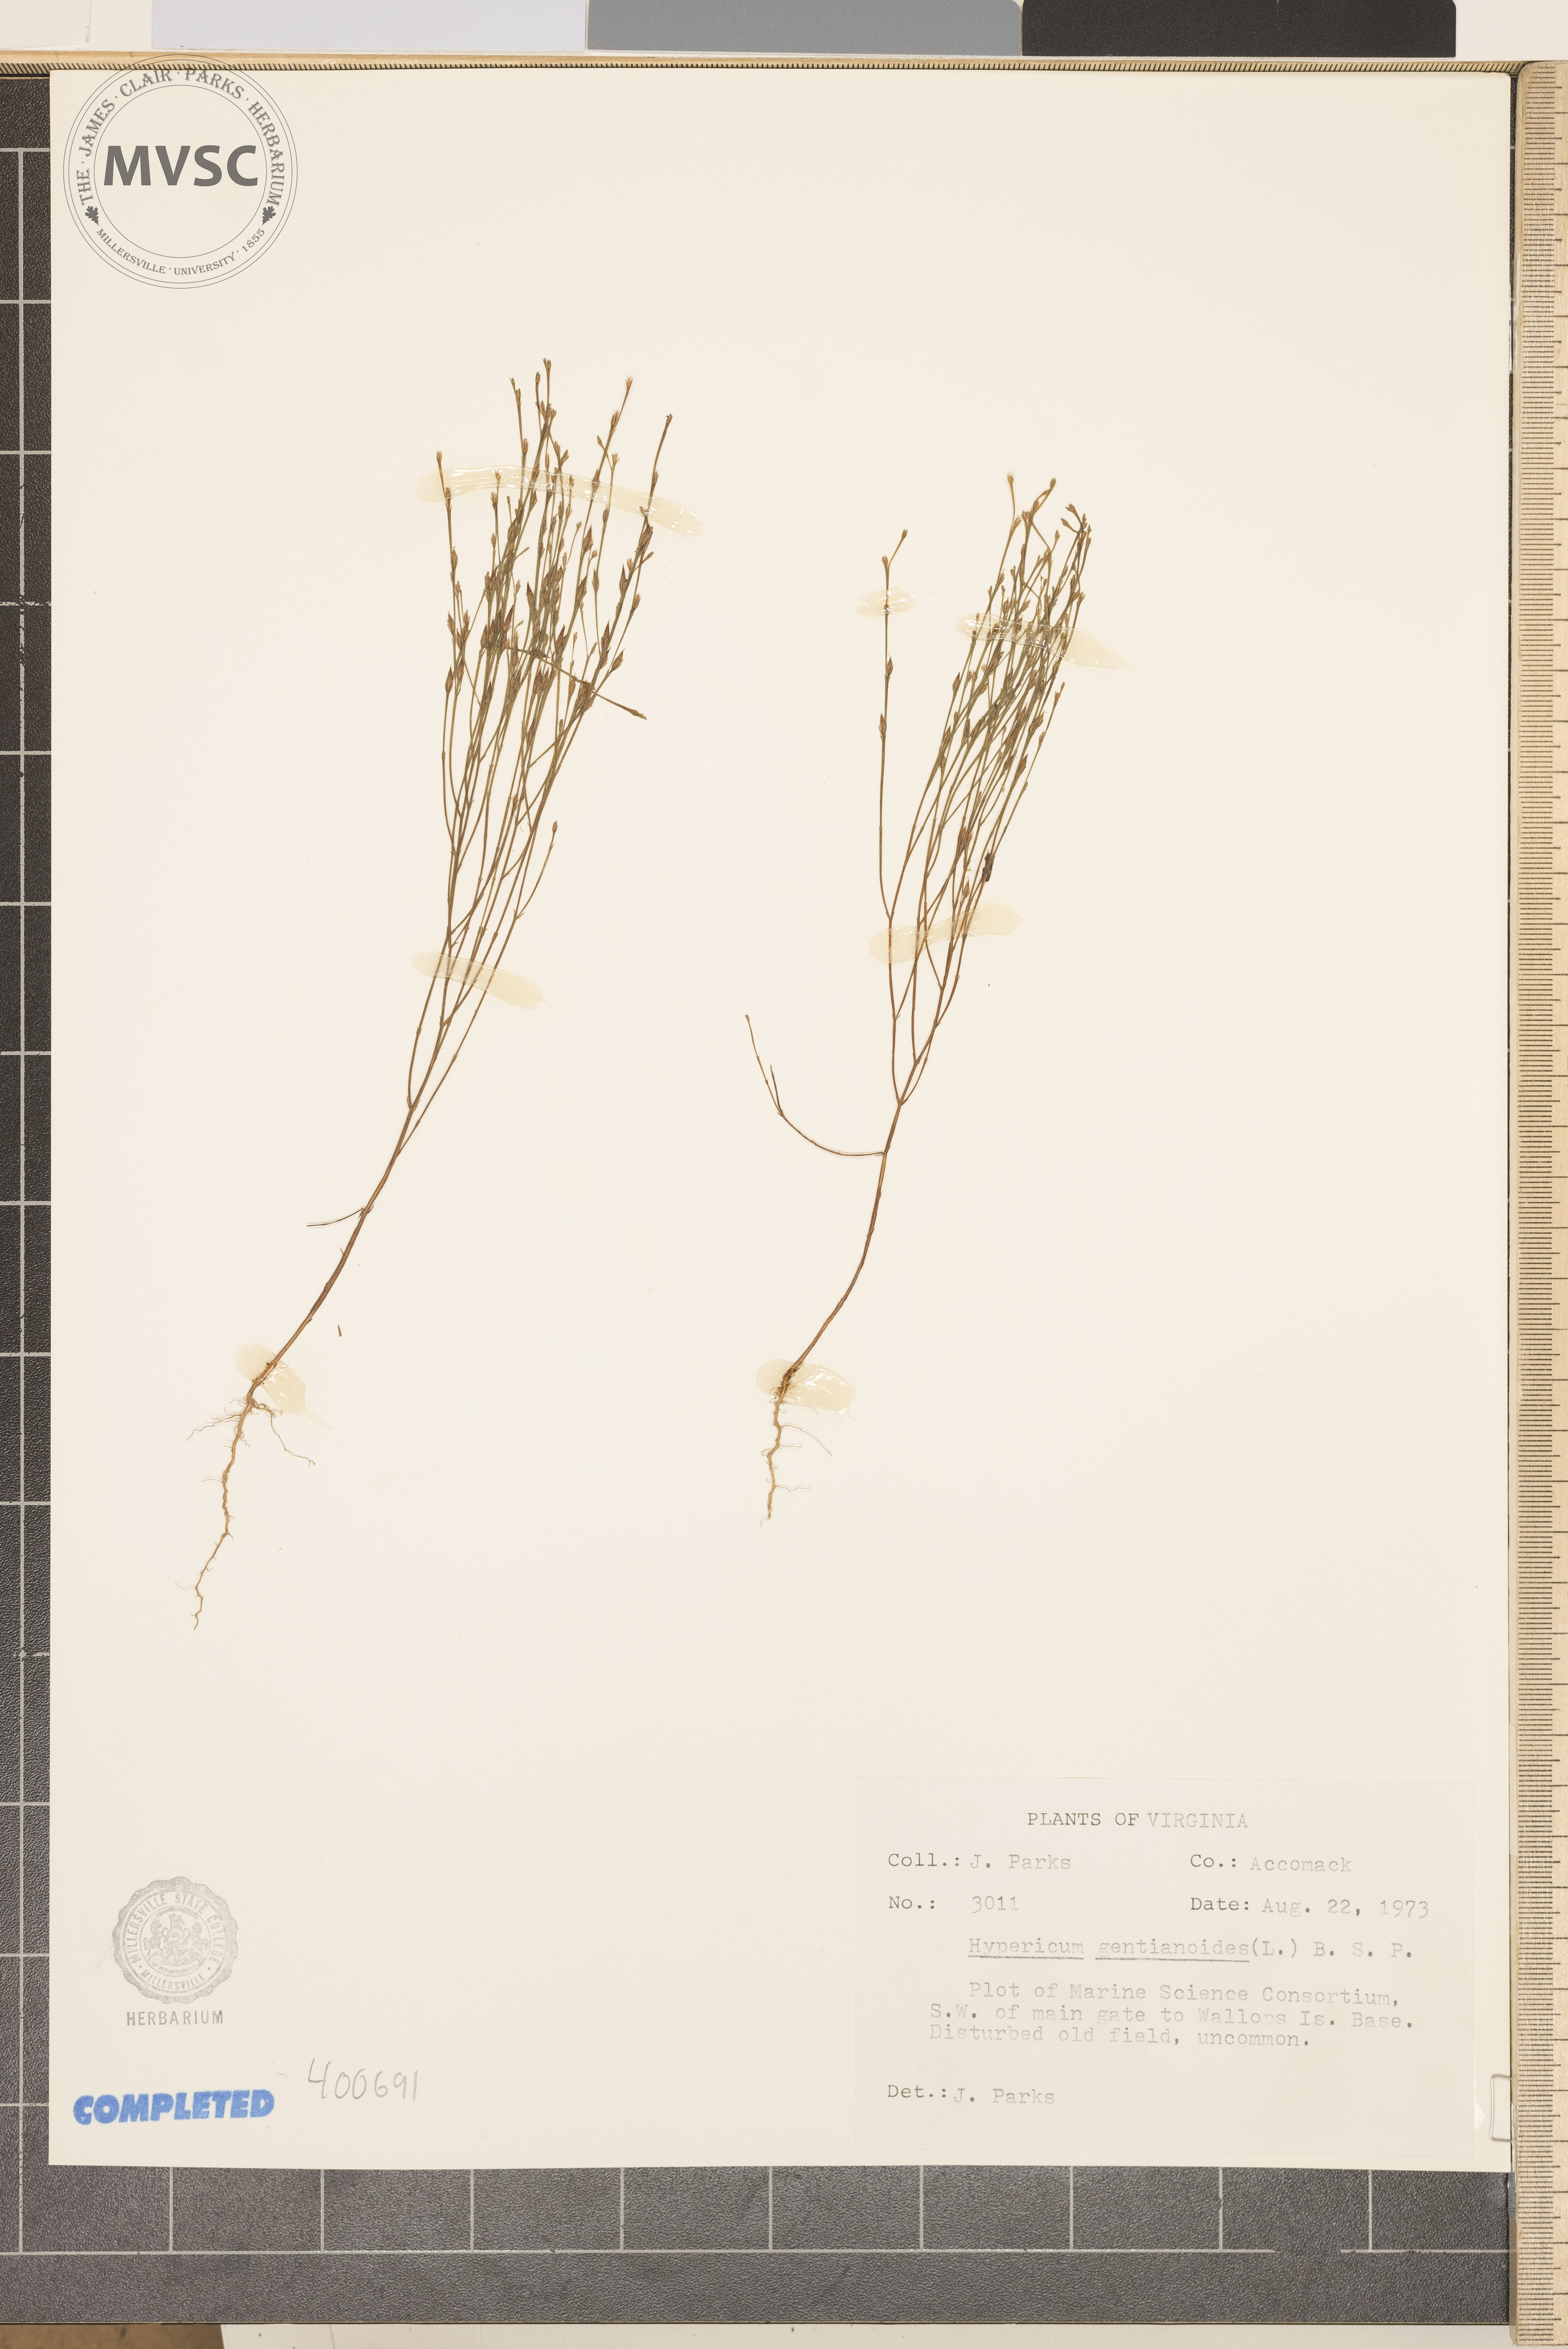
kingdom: Plantae
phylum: Tracheophyta
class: Magnoliopsida
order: Malpighiales
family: Hypericaceae
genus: Hypericum
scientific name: Hypericum gentianoides
